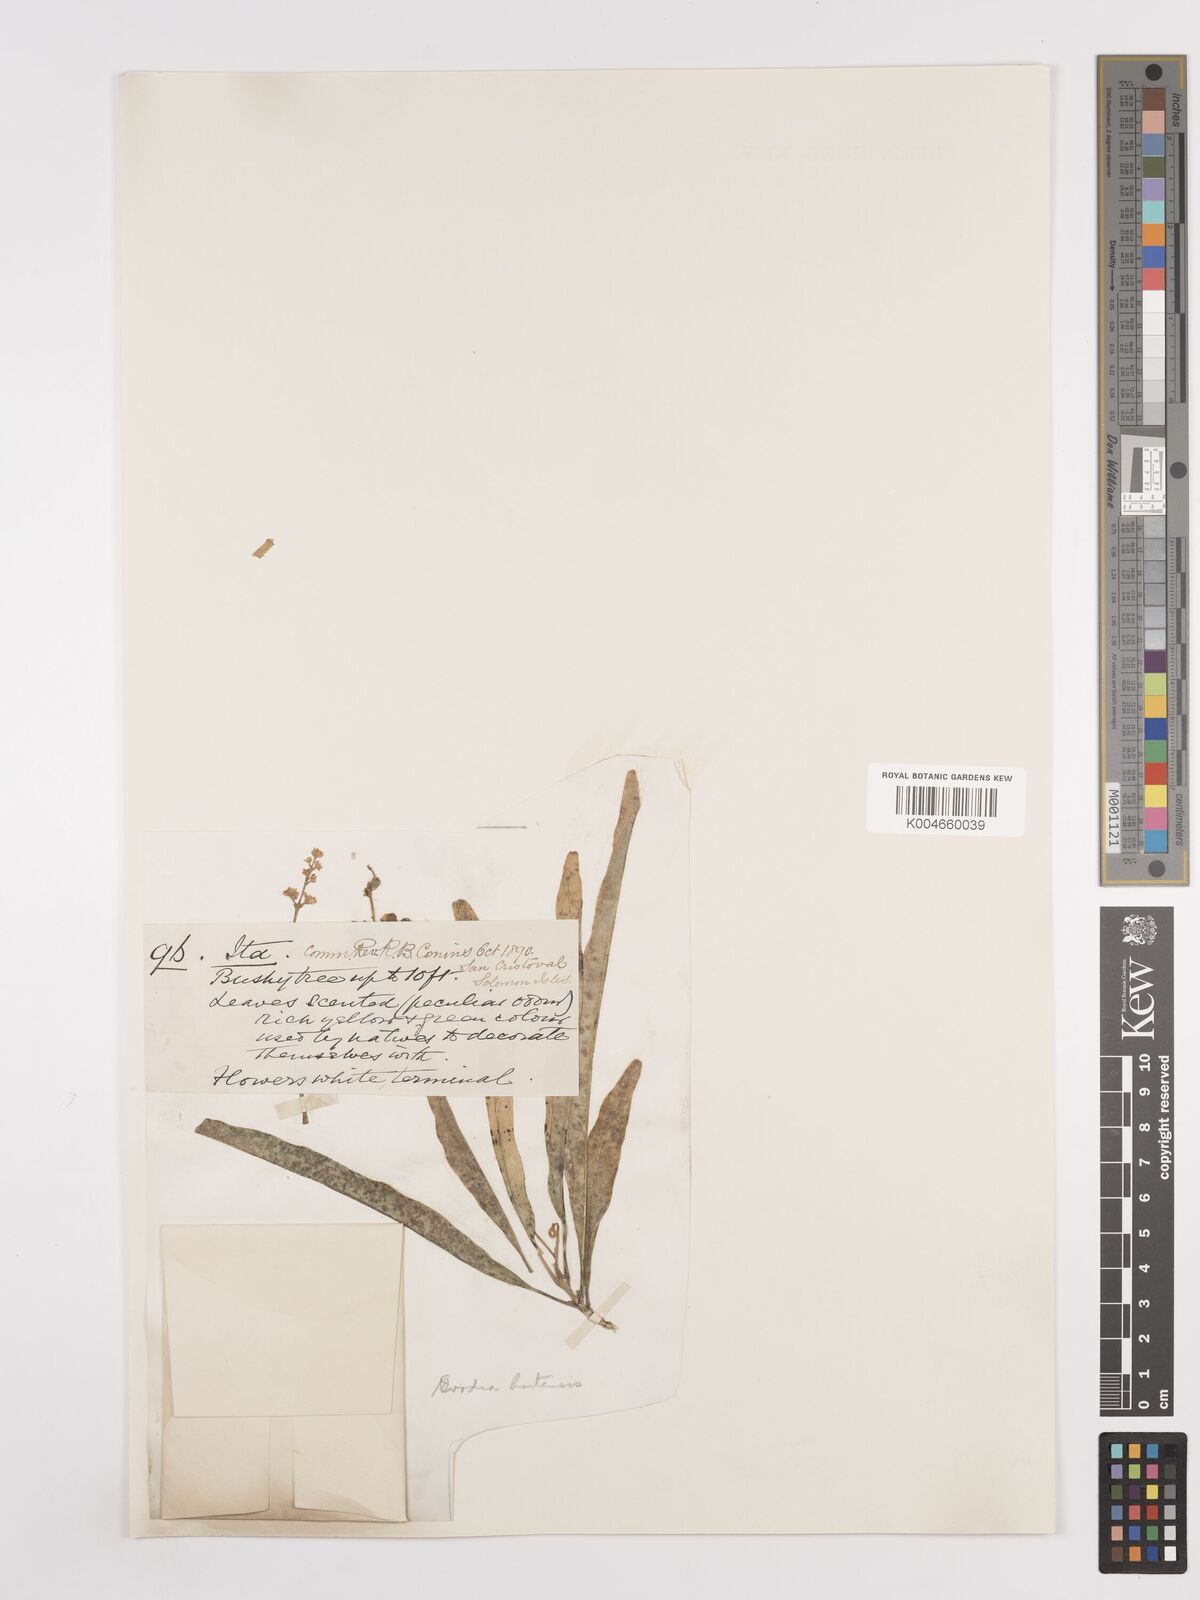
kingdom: Plantae
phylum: Tracheophyta
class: Magnoliopsida
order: Sapindales
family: Rutaceae
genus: Euodia
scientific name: Euodia hortensis
